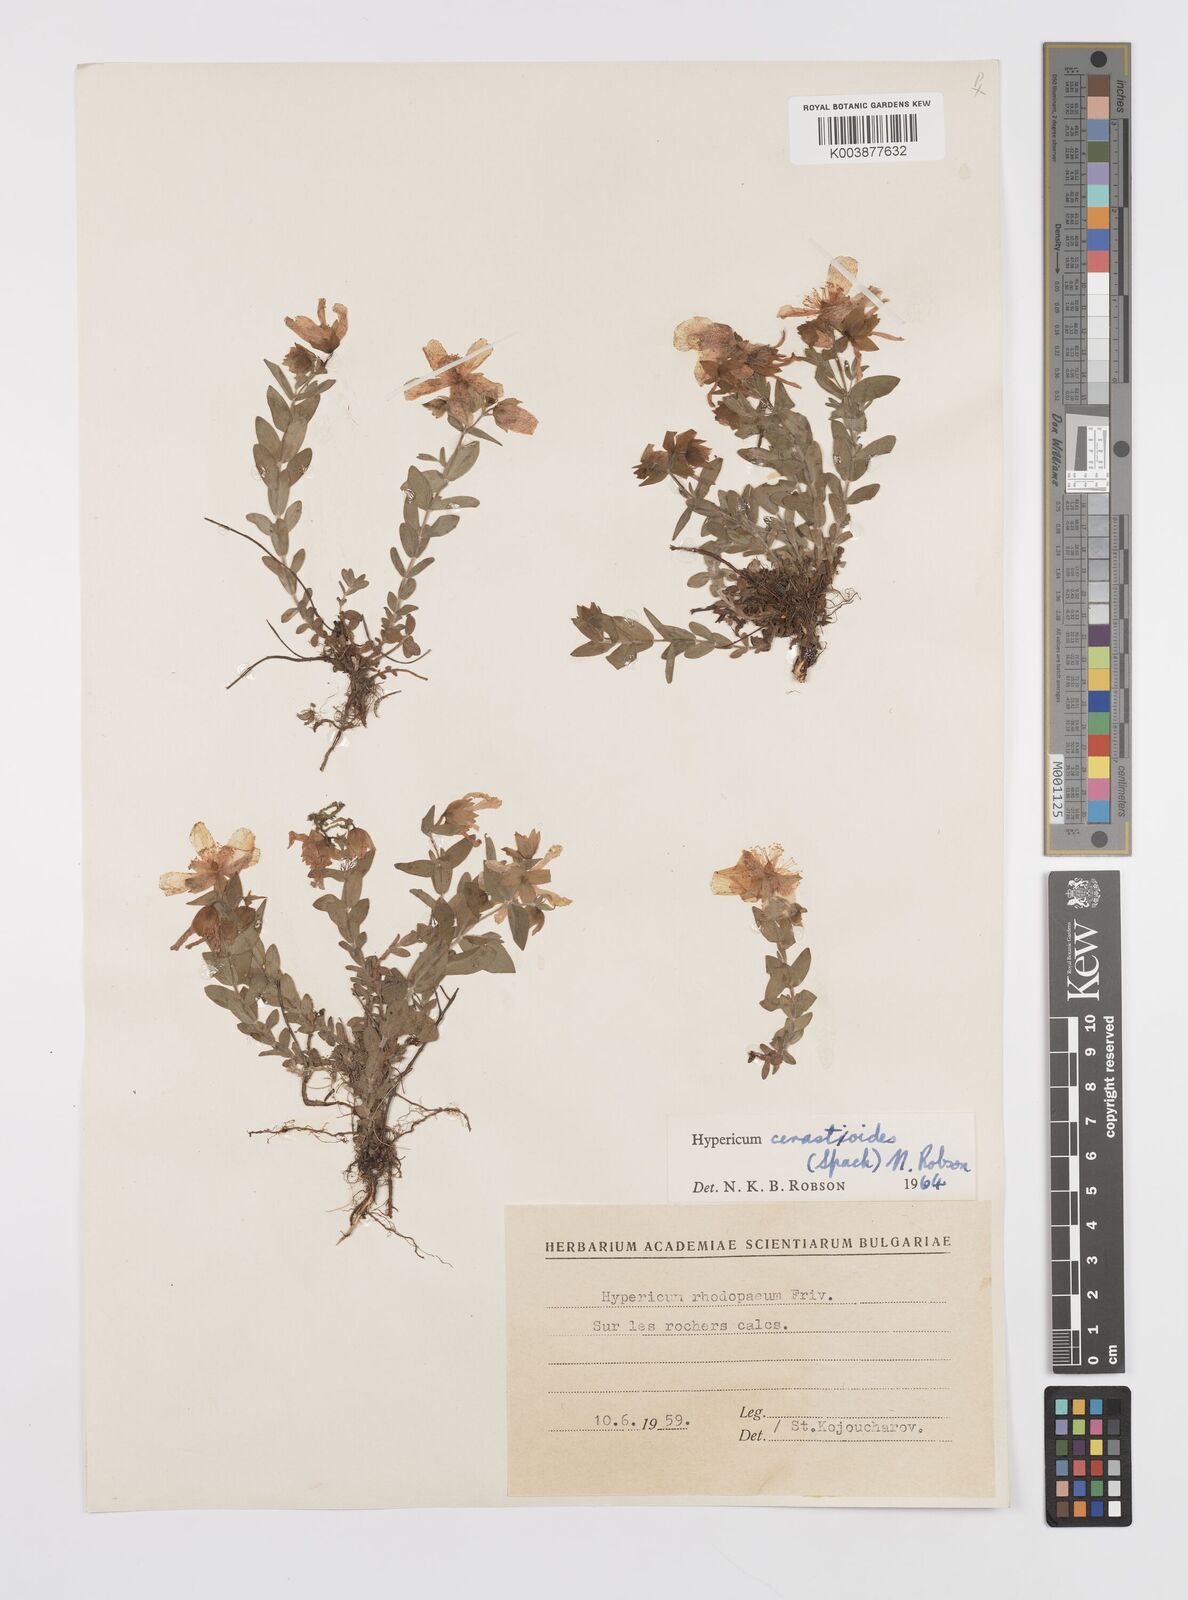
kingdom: Plantae
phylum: Tracheophyta
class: Magnoliopsida
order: Malpighiales
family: Hypericaceae
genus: Hypericum
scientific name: Hypericum cerastoides
